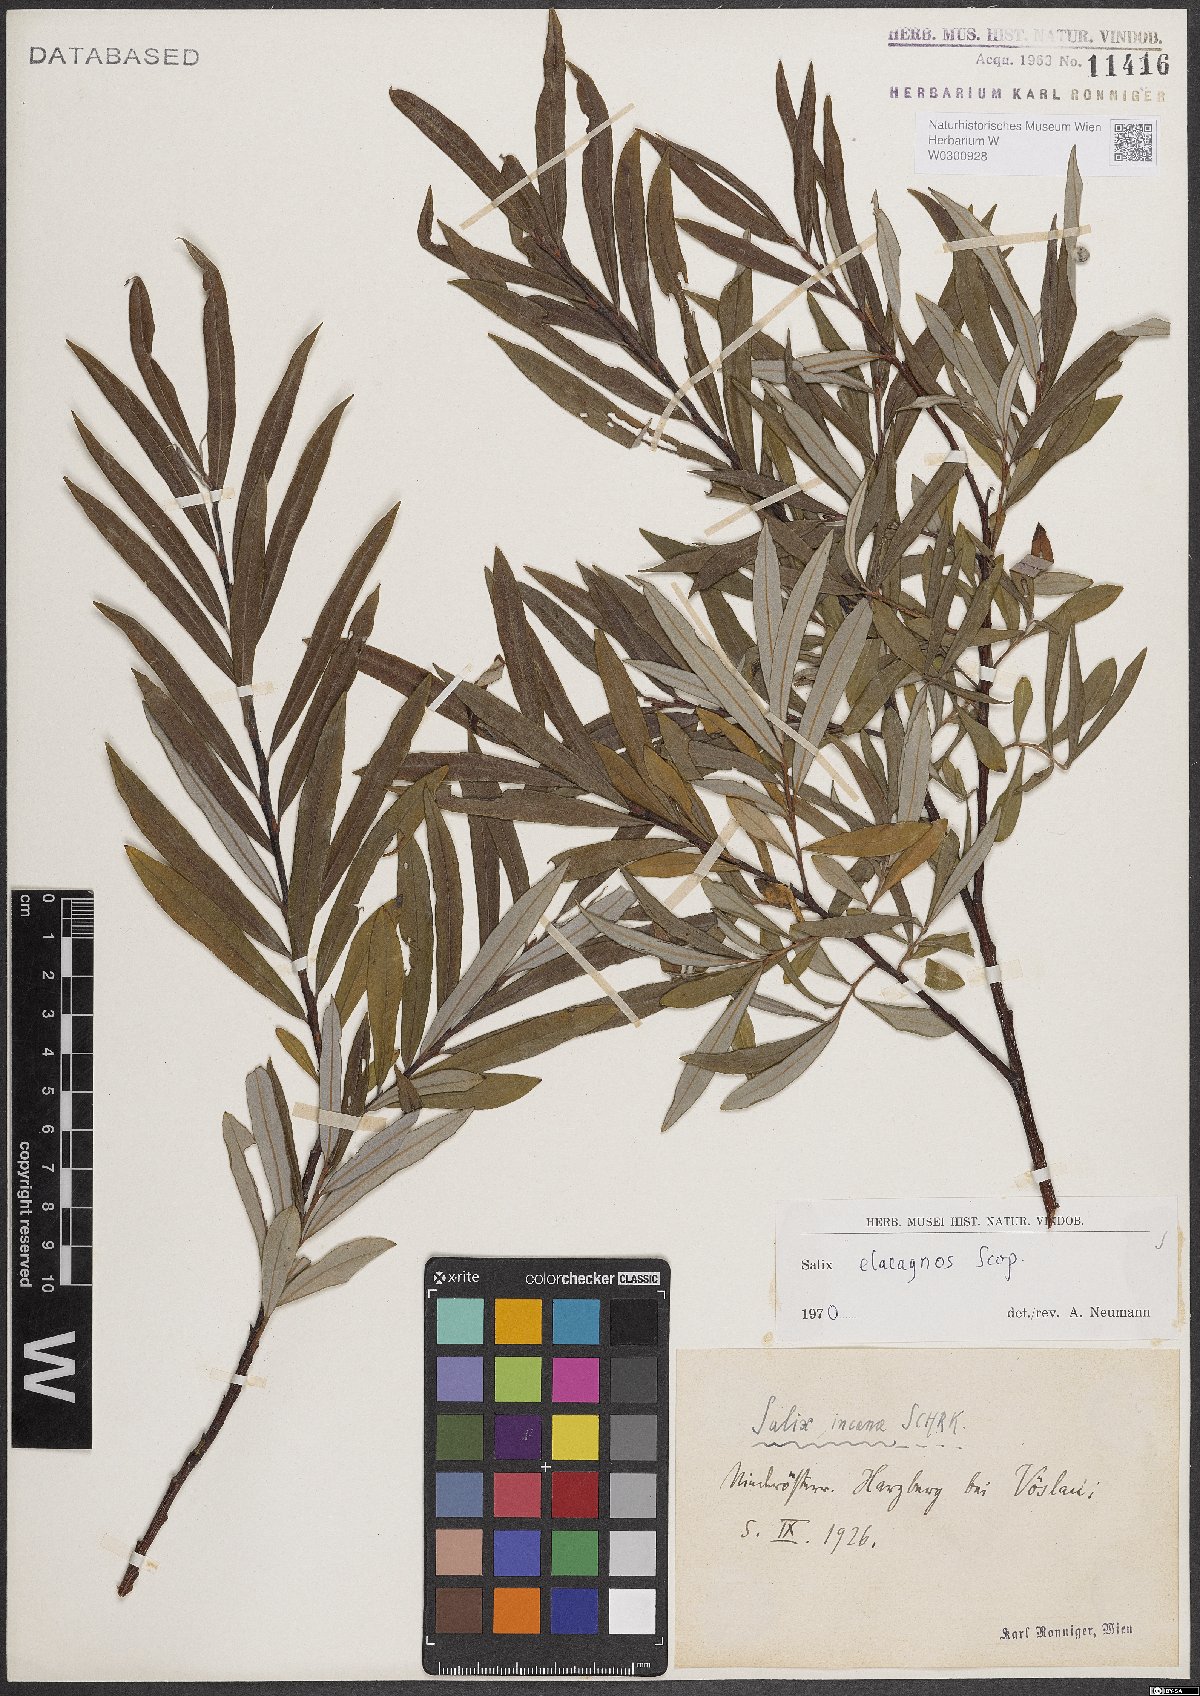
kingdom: Plantae
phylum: Tracheophyta
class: Magnoliopsida
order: Malpighiales
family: Salicaceae
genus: Salix
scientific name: Salix eleagnos
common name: Elaeagnus willow
